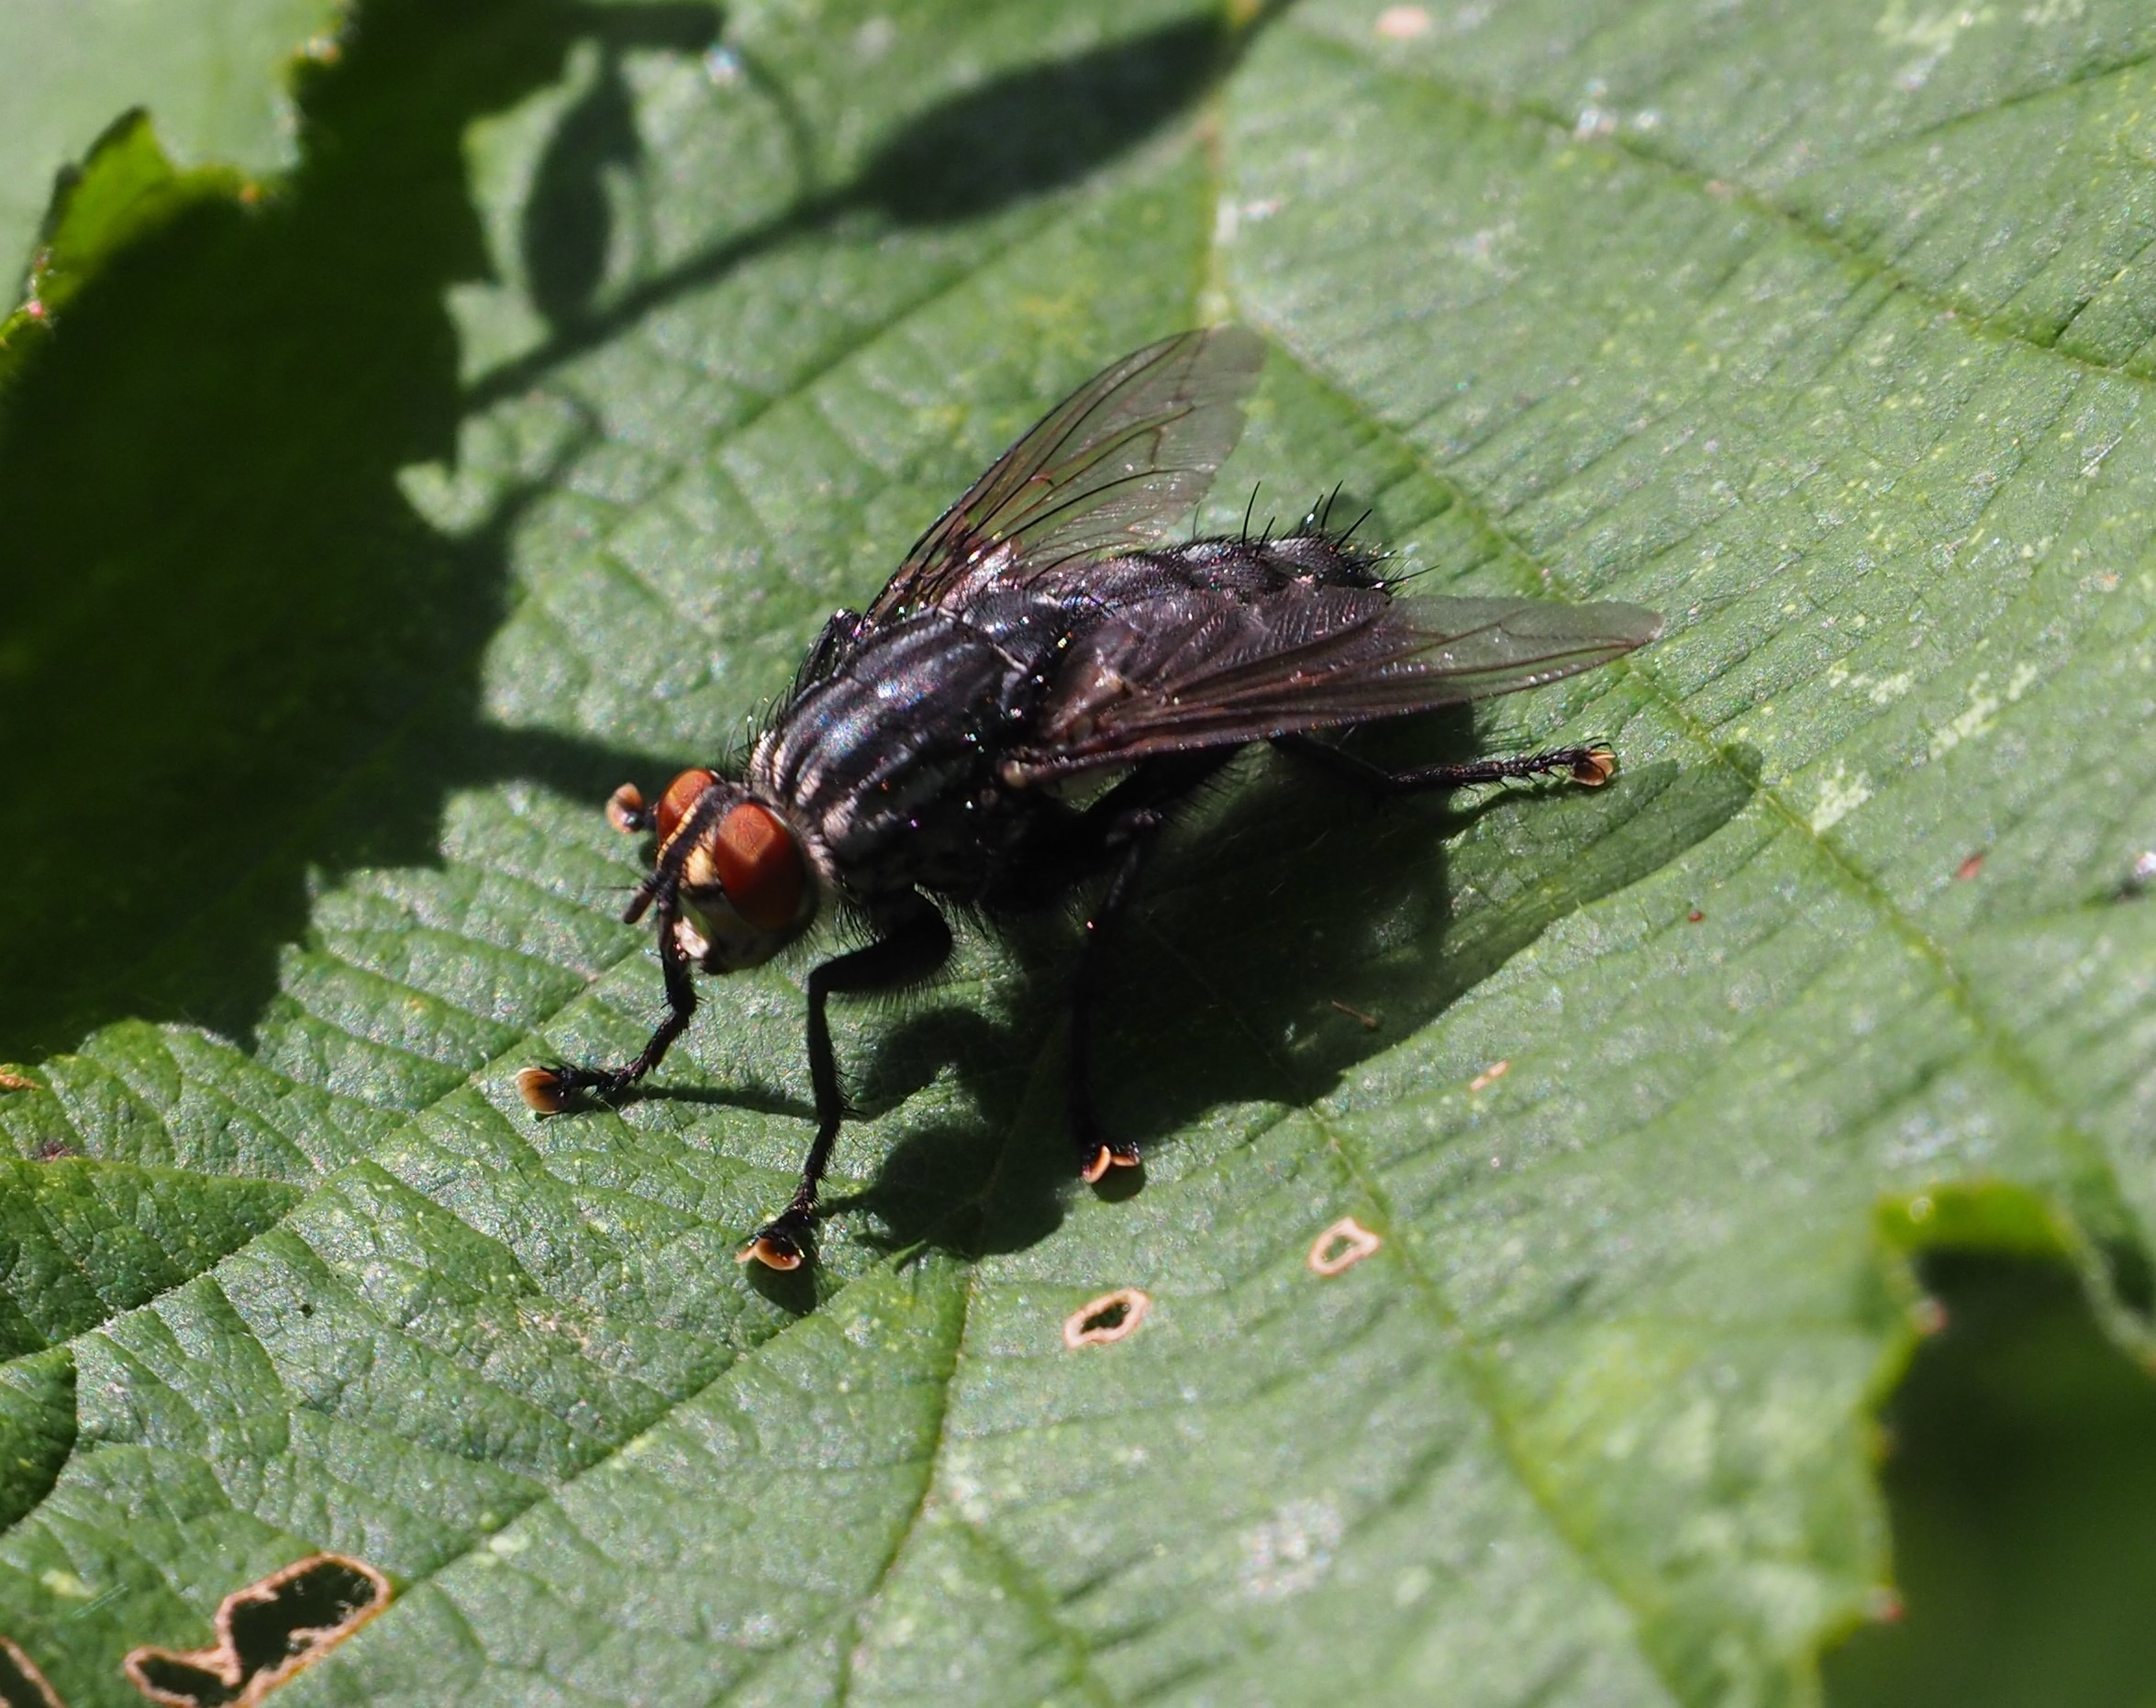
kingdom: Animalia
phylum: Arthropoda
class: Insecta
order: Diptera
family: Sarcophagidae
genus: Sarcophaga
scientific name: Sarcophaga
